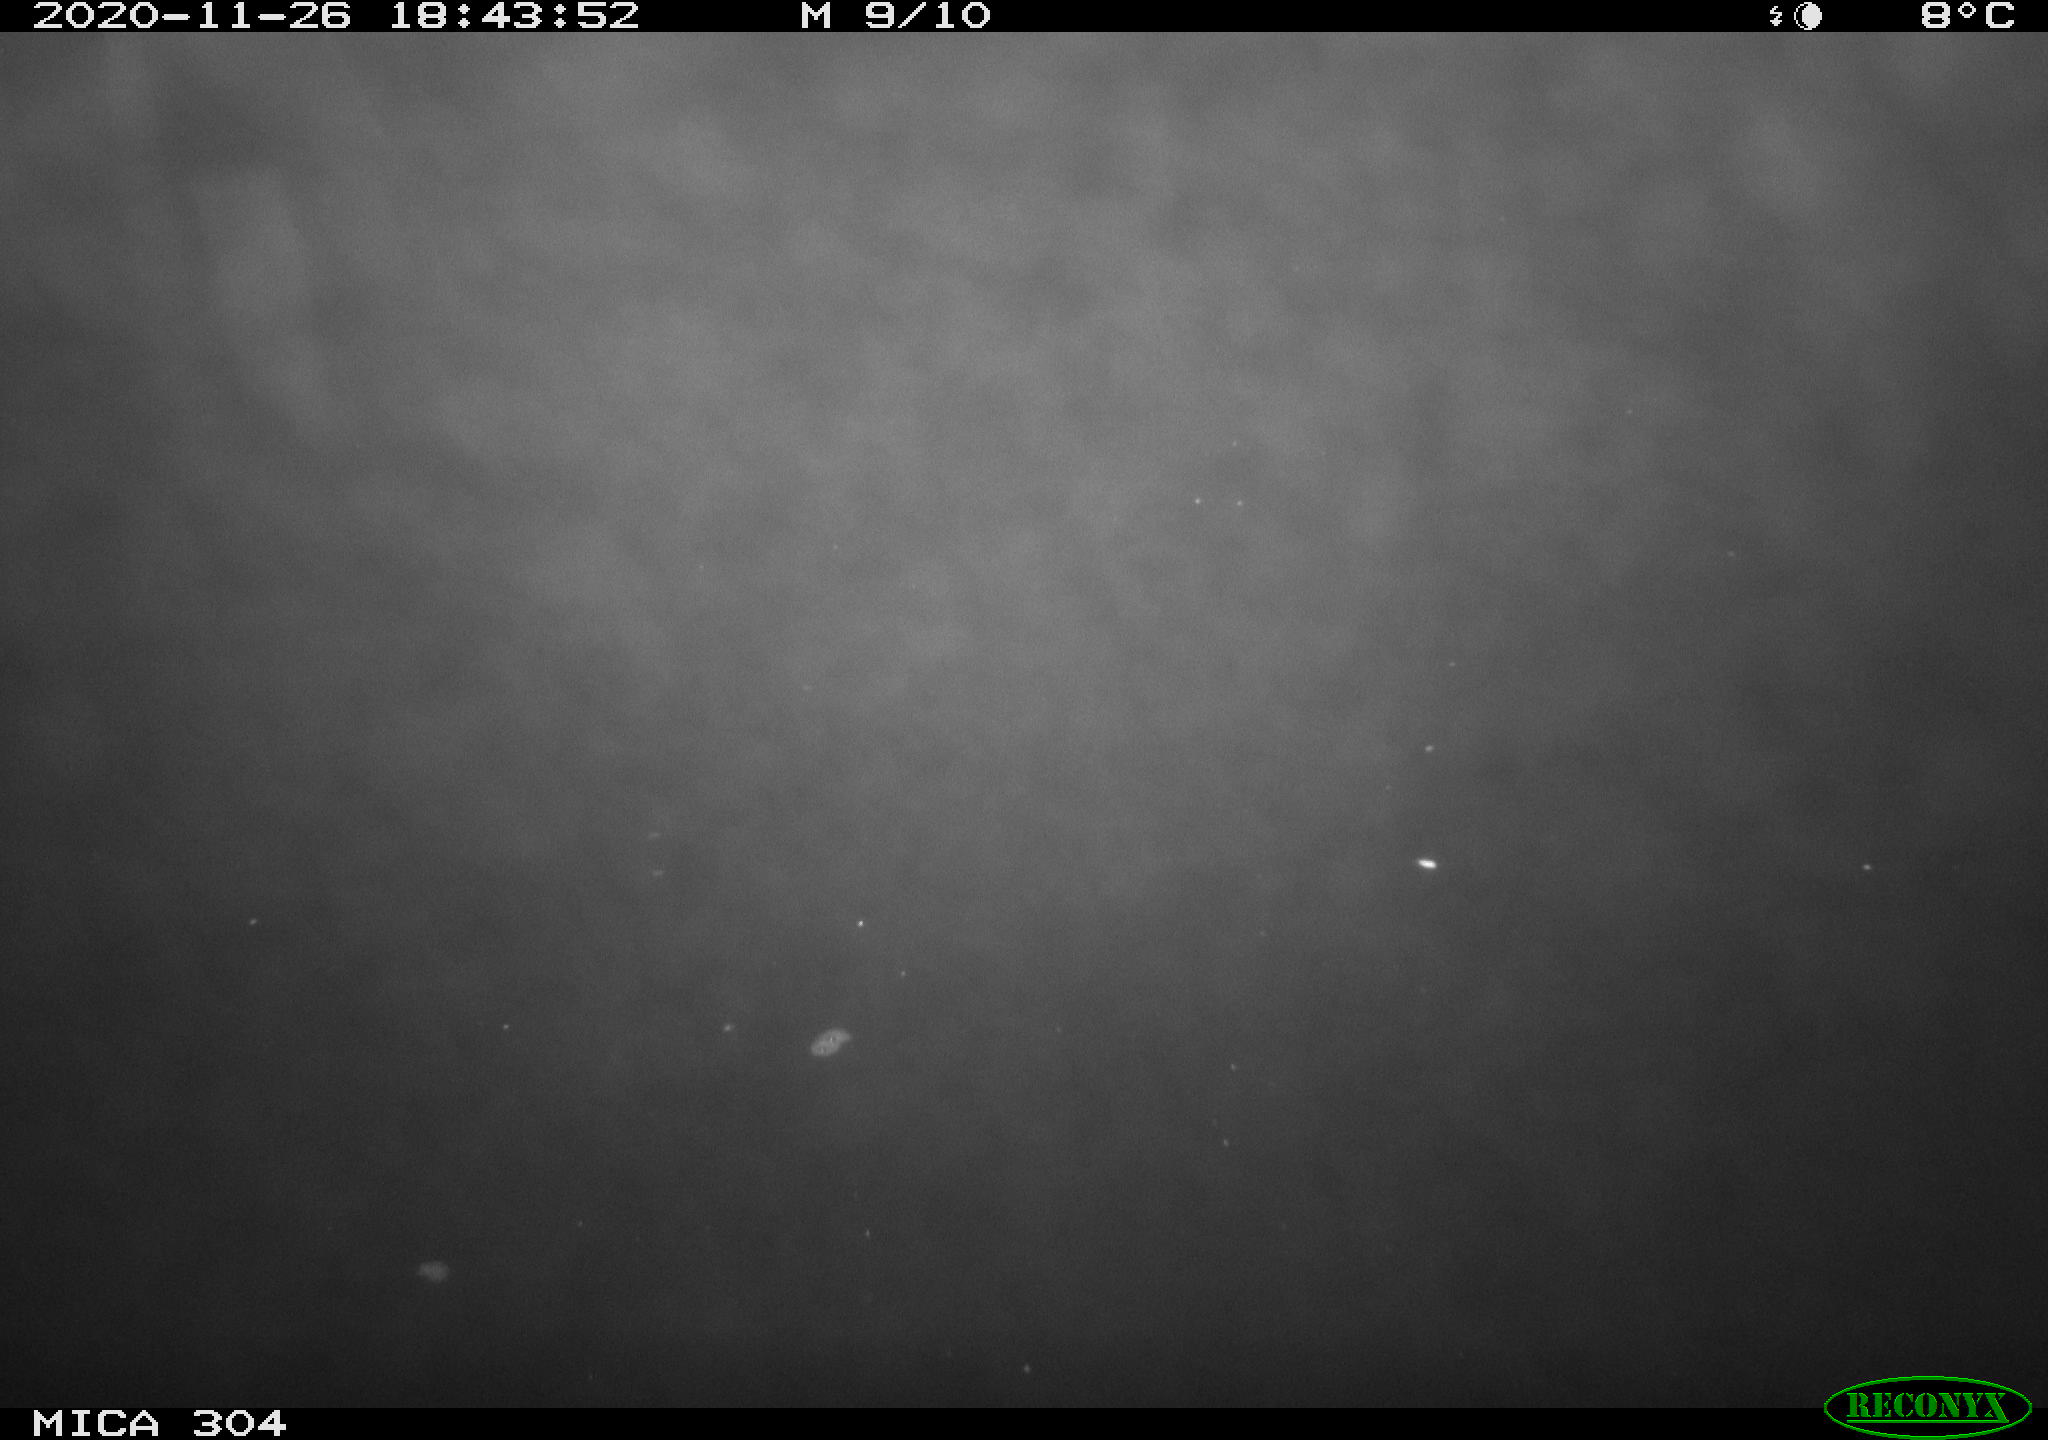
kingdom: Animalia
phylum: Chordata
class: Mammalia
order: Rodentia
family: Muridae
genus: Rattus
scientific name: Rattus norvegicus
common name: Brown rat
